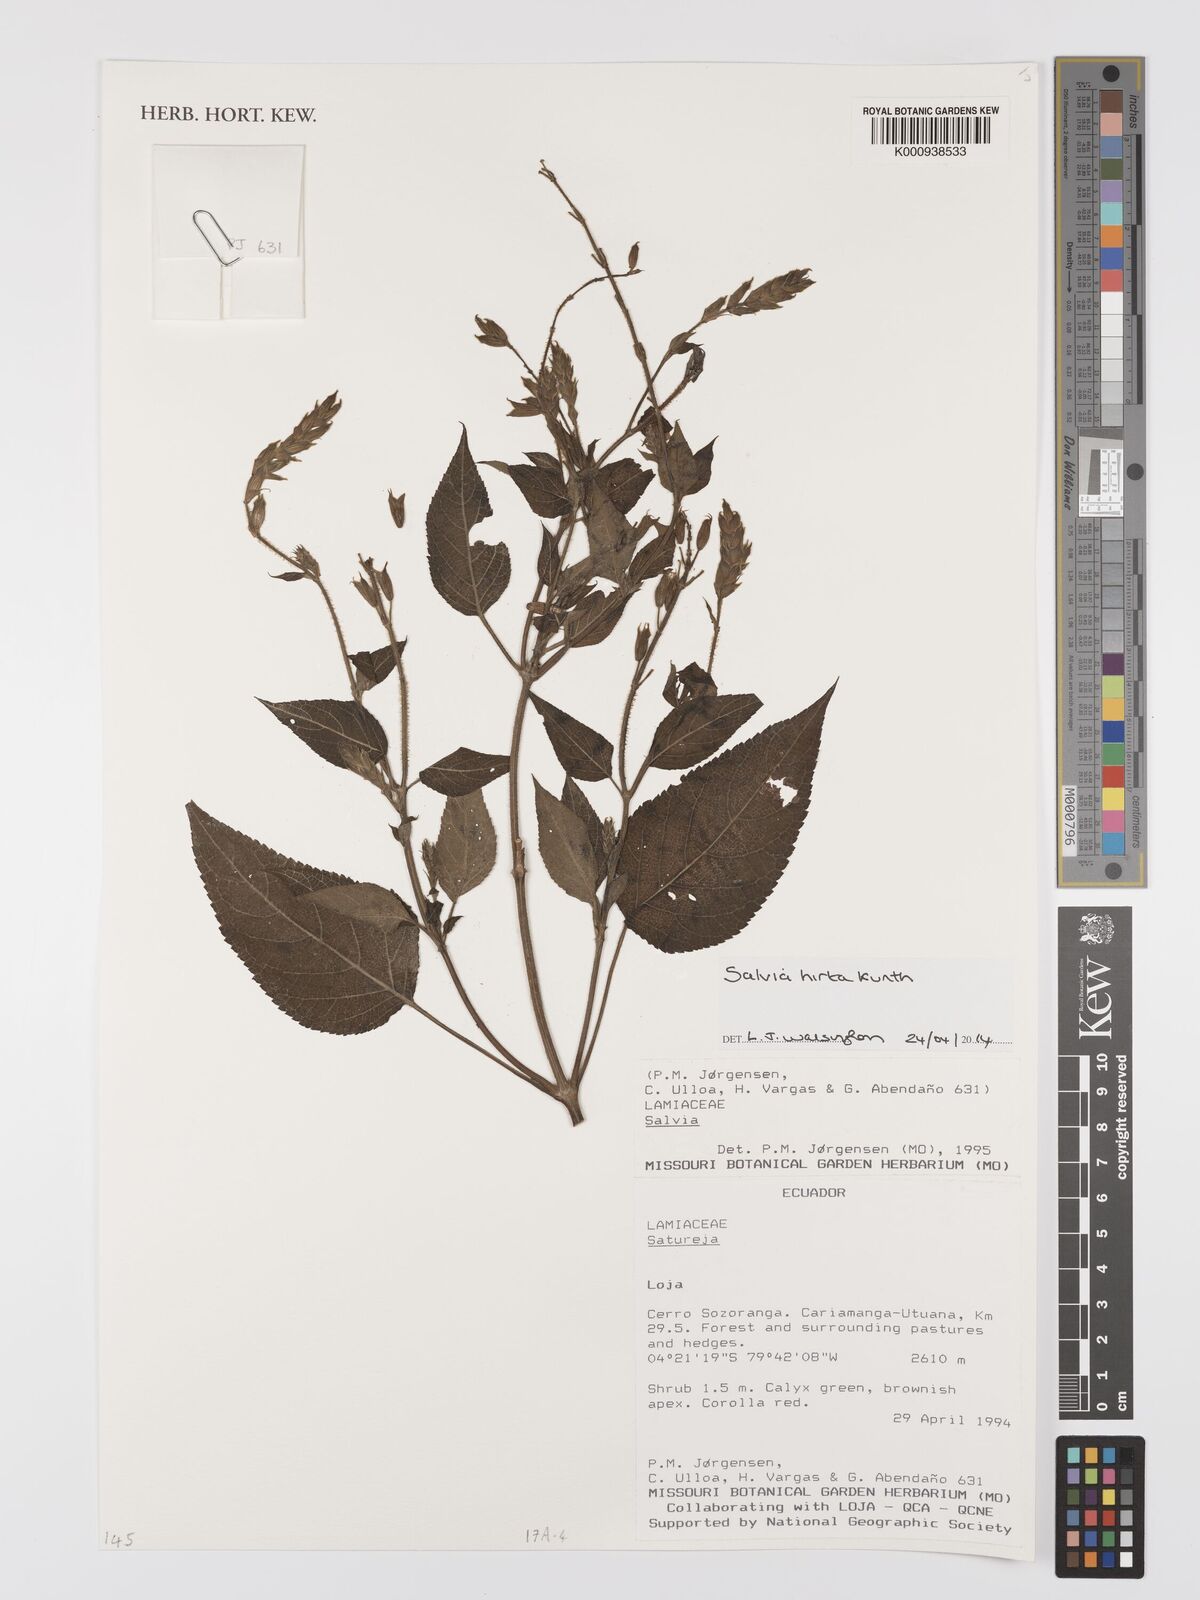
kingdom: Plantae
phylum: Tracheophyta
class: Magnoliopsida
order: Lamiales
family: Lamiaceae
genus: Salvia
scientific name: Salvia hirta
